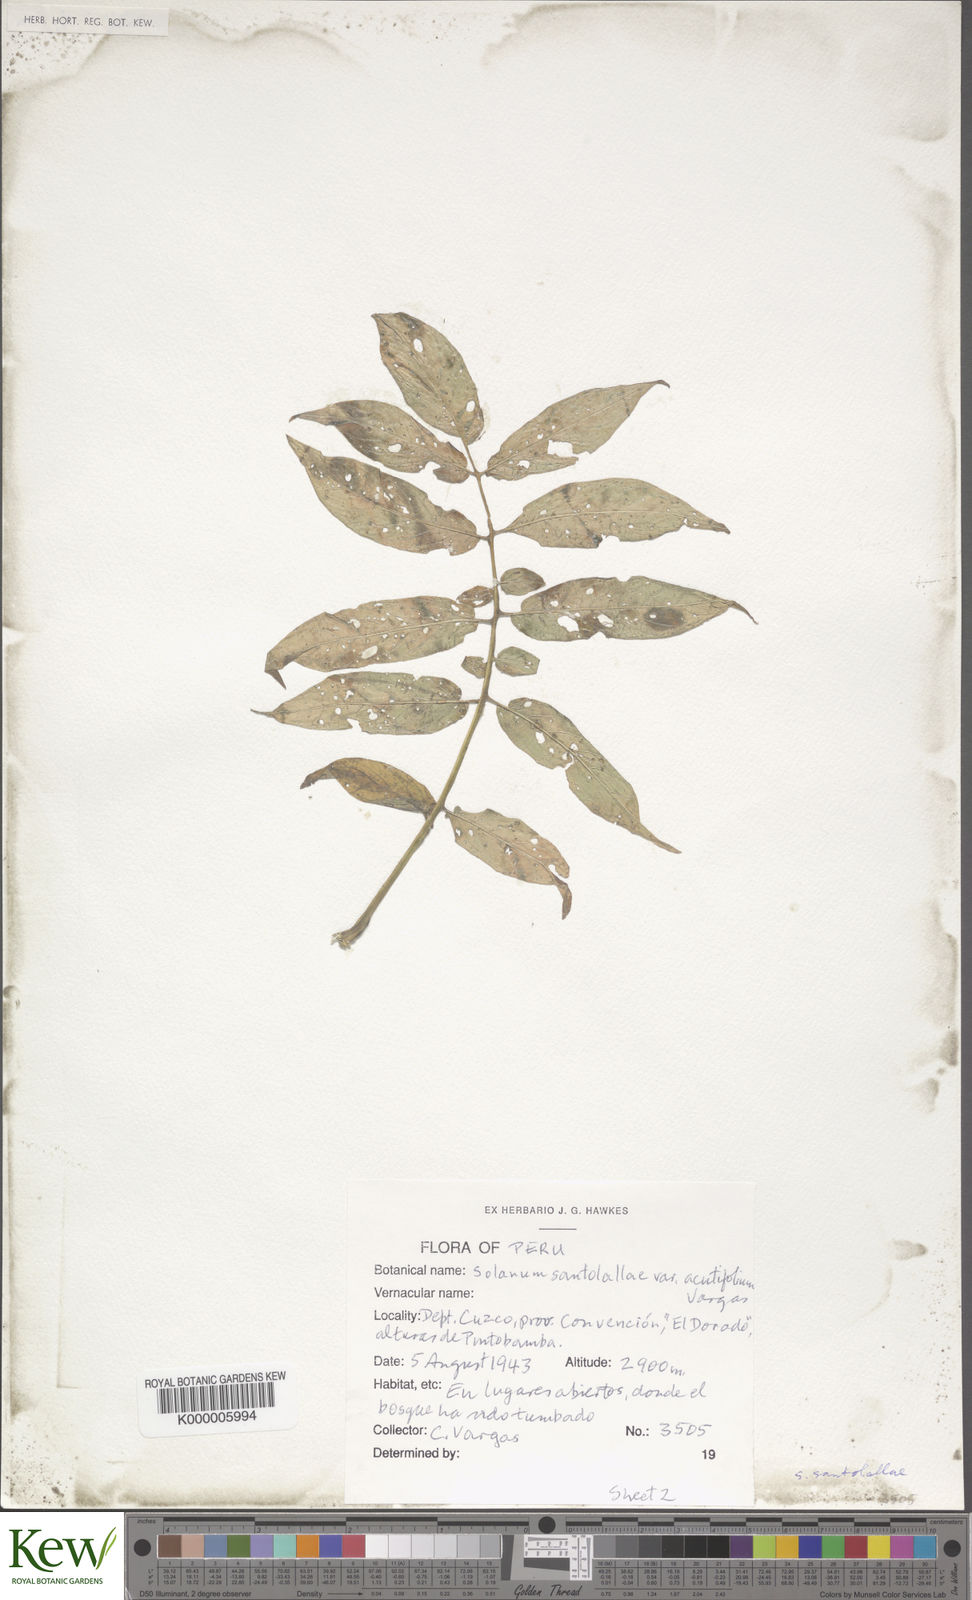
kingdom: Plantae
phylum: Tracheophyta
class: Magnoliopsida
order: Solanales
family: Solanaceae
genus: Solanum
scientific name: Solanum laxissimum
